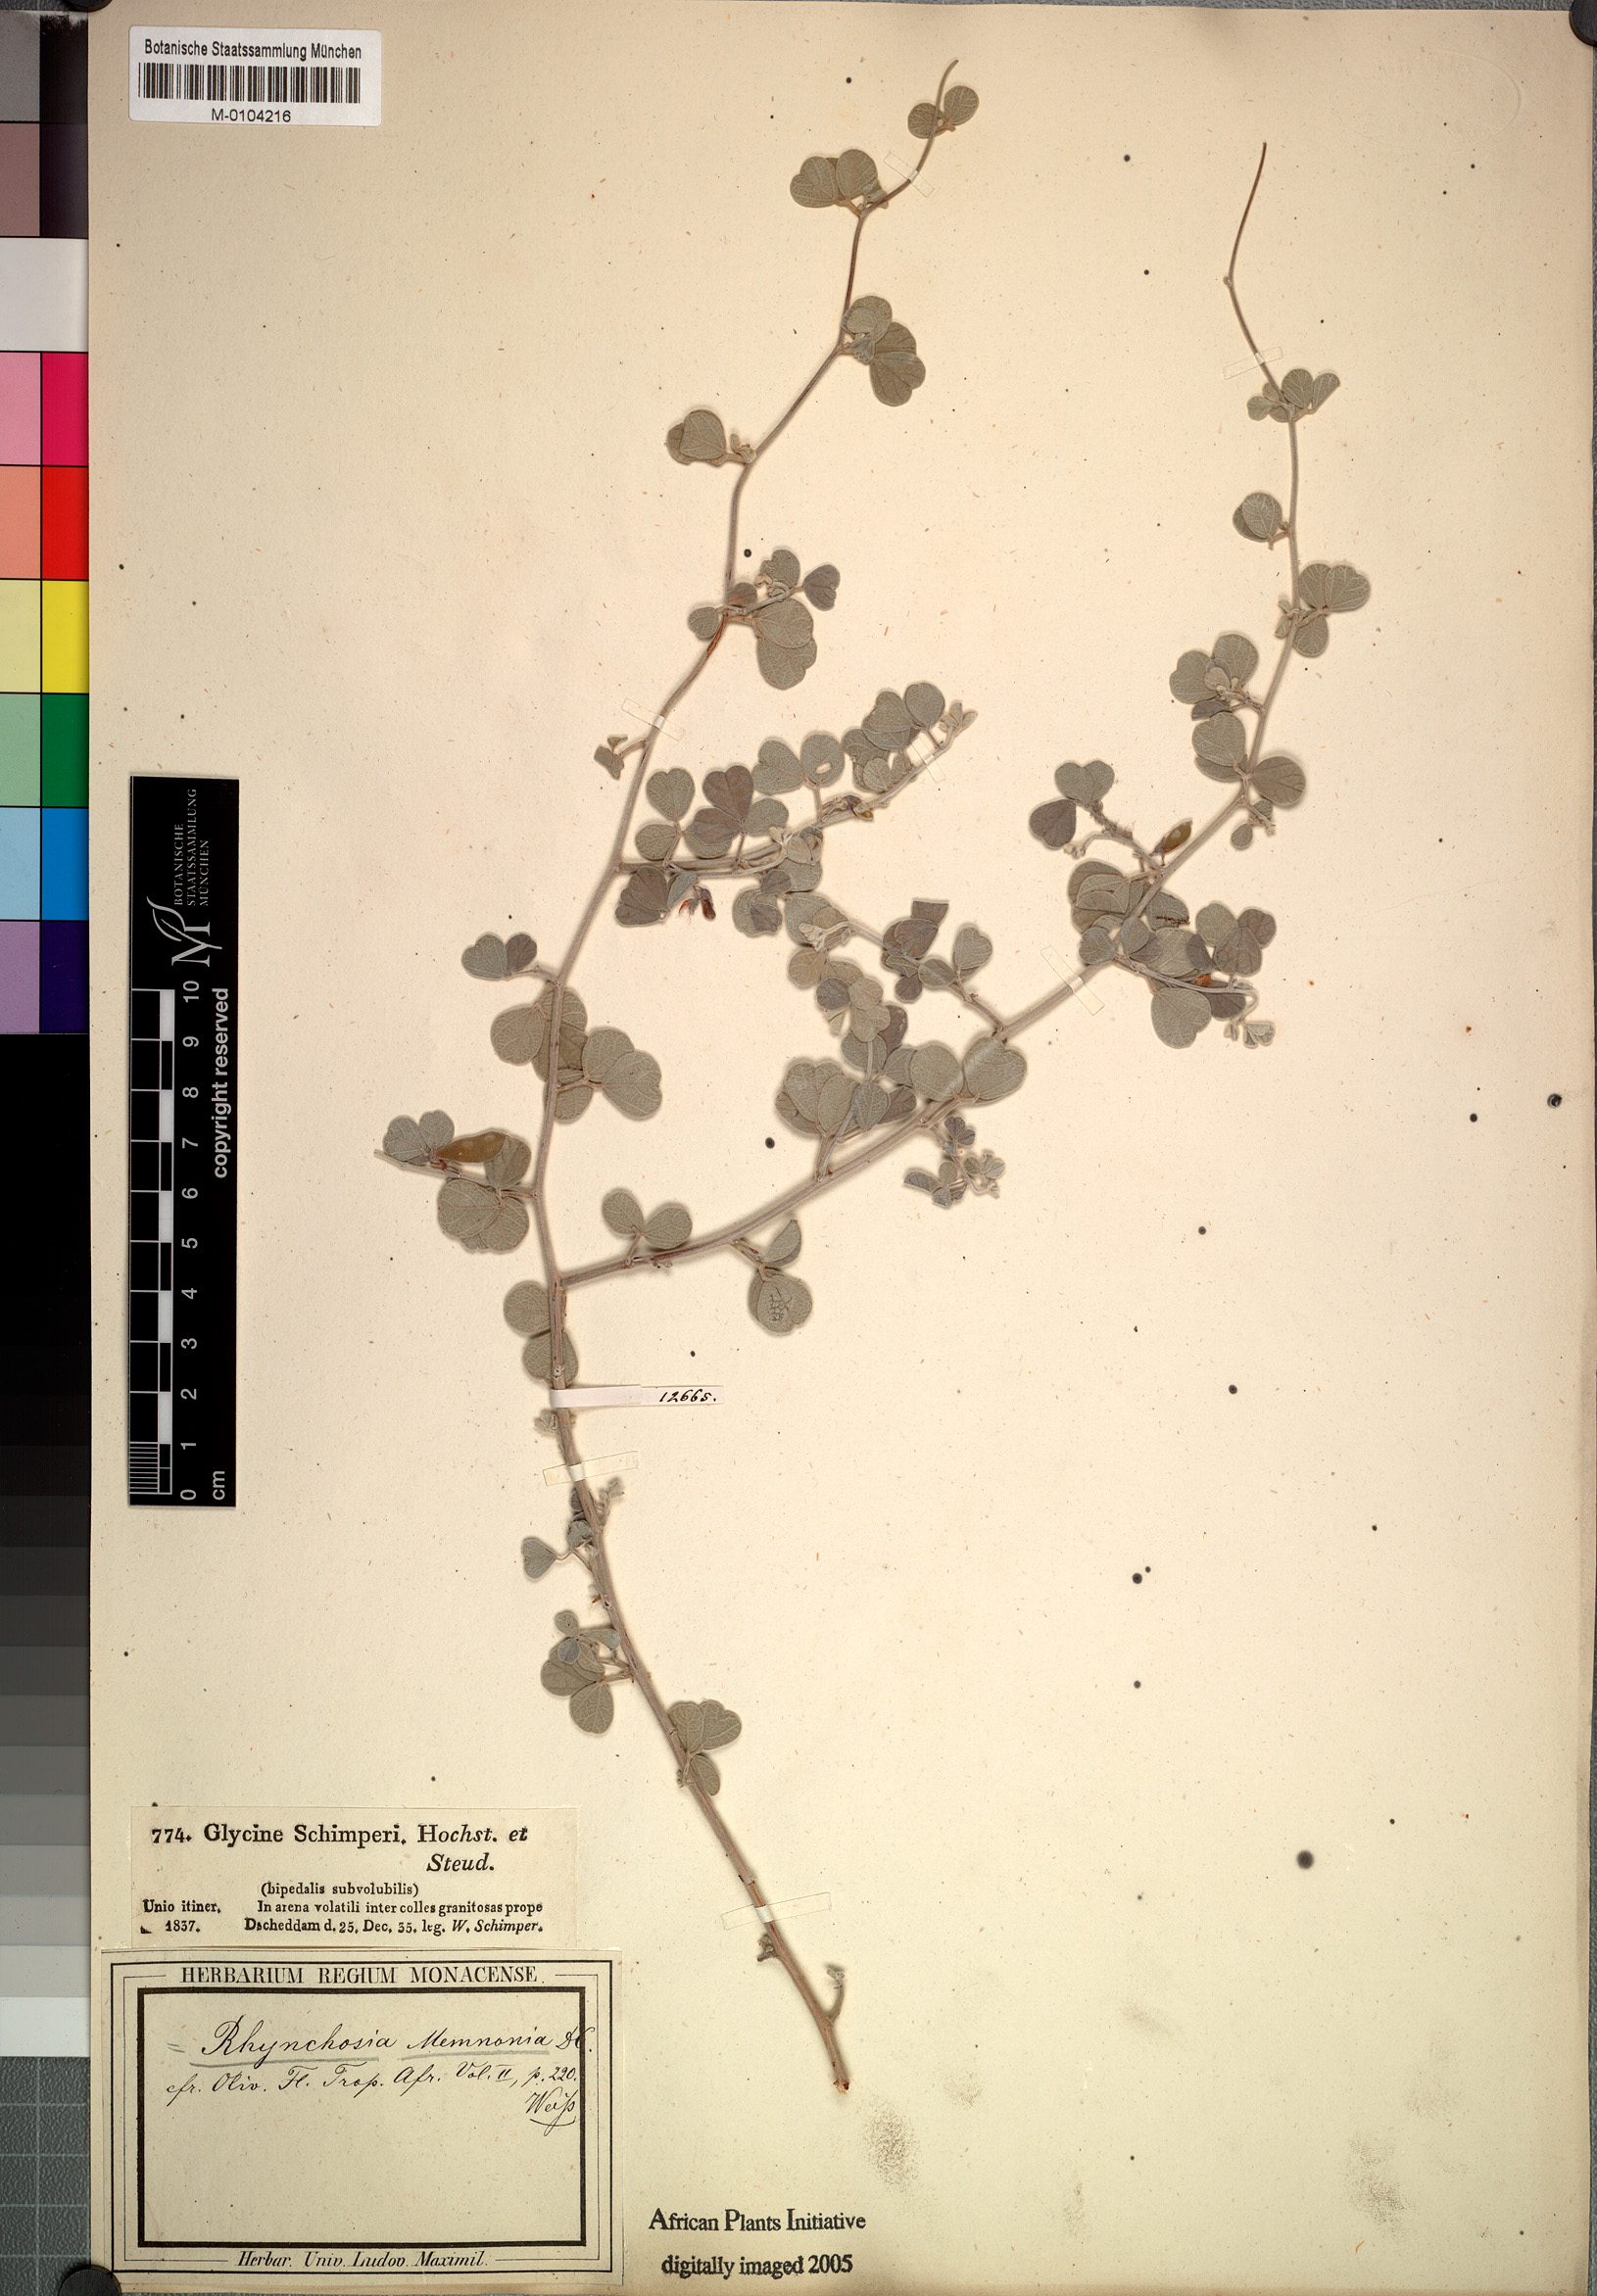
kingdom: Plantae
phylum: Tracheophyta
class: Magnoliopsida
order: Fabales
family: Fabaceae
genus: Rhynchosia
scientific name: Rhynchosia schimperi
